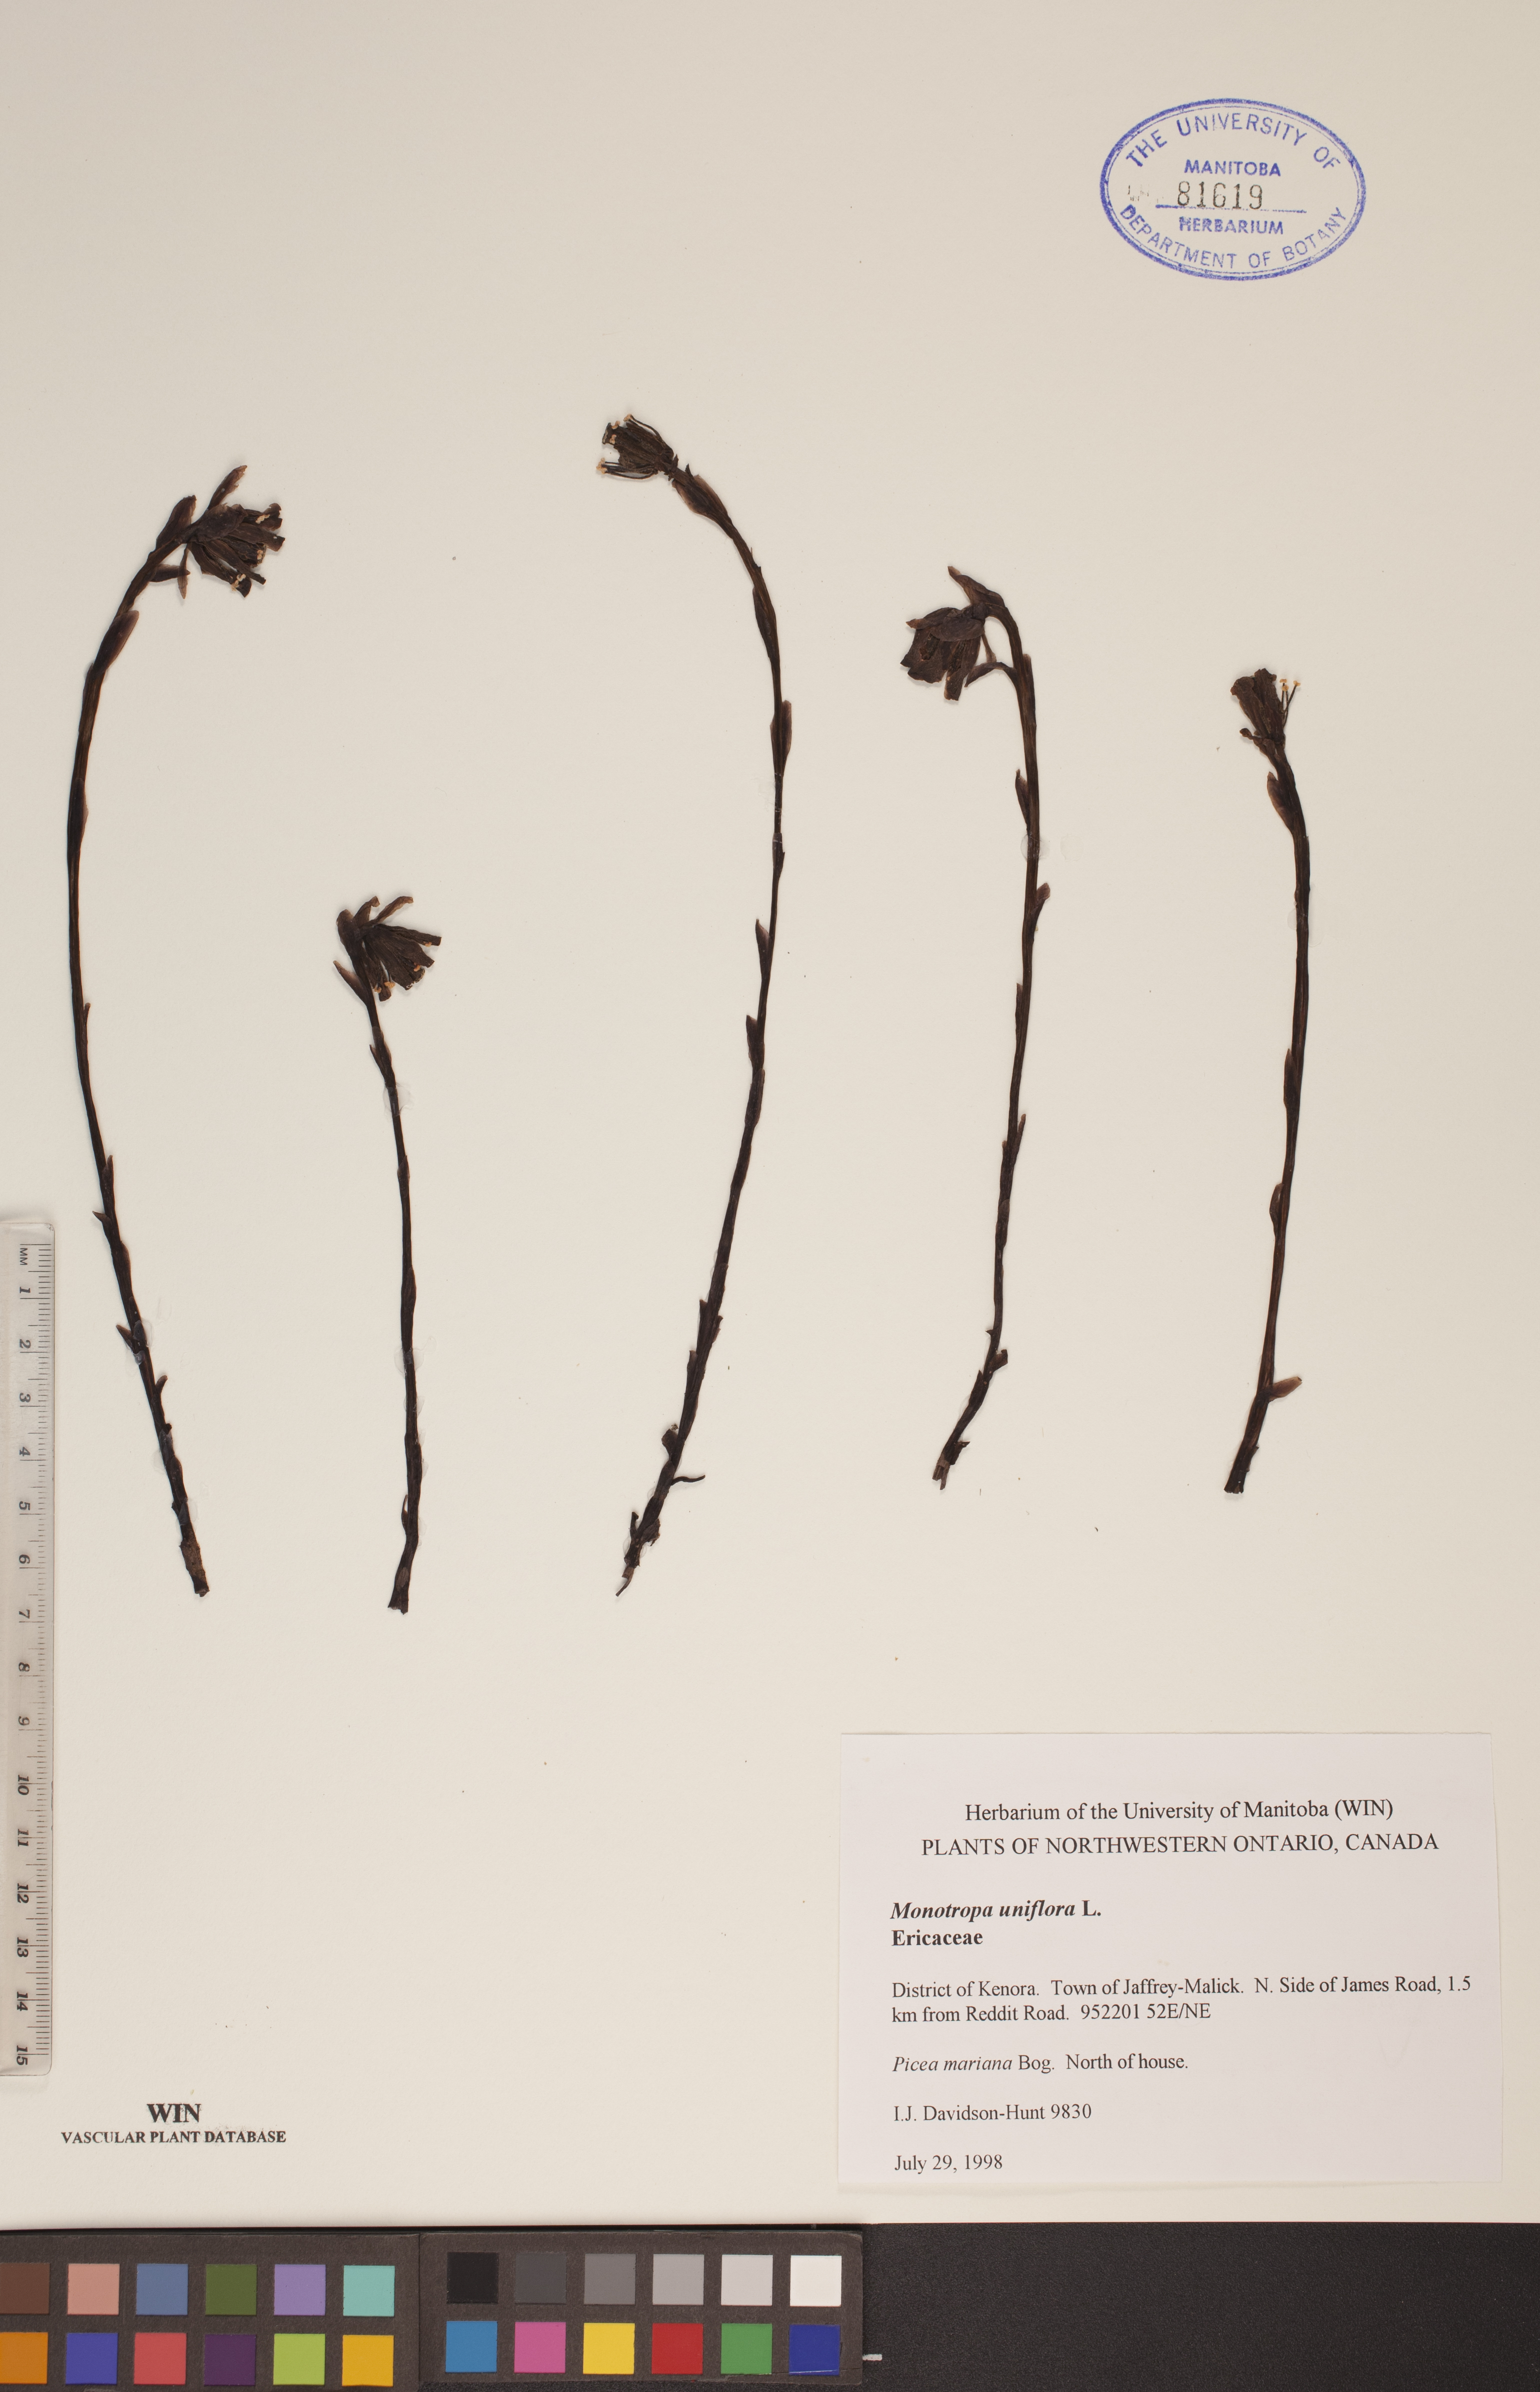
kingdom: Plantae
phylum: Tracheophyta
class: Magnoliopsida
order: Ericales
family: Ericaceae
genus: Monotropa
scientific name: Monotropa uniflora
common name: Convulsion root
